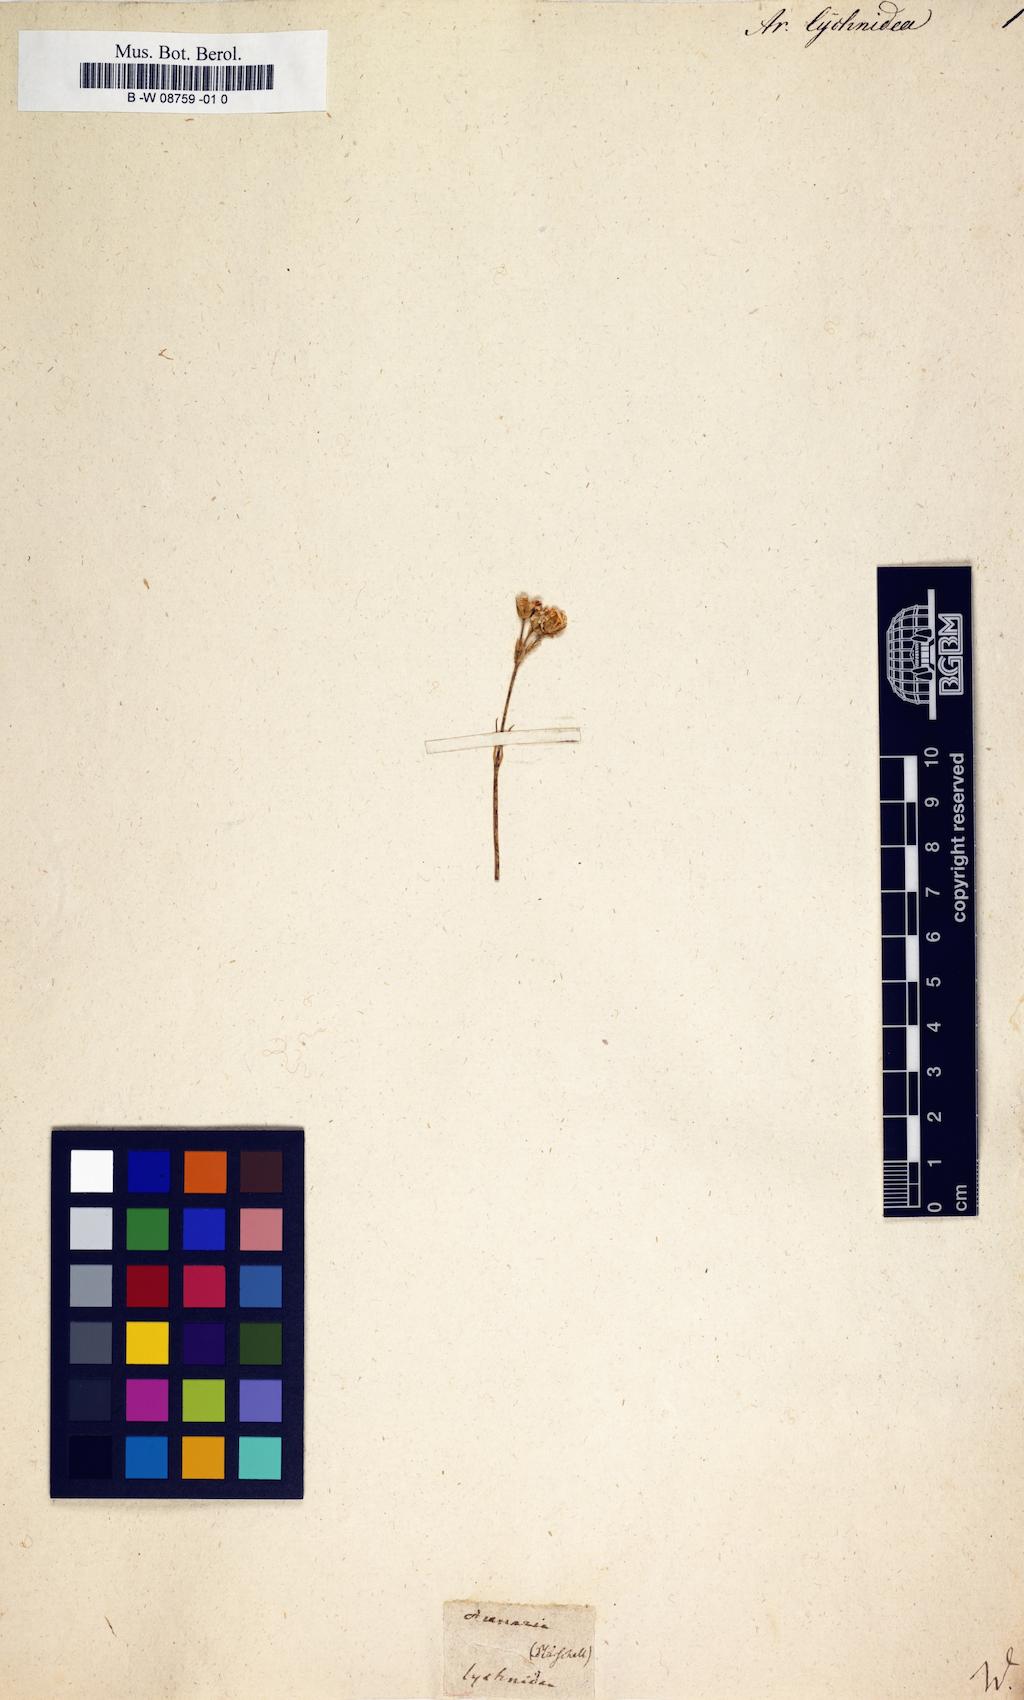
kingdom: Plantae
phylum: Tracheophyta
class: Magnoliopsida
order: Caryophyllales
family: Caryophyllaceae
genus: Eremogone
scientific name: Eremogone lychnidea
